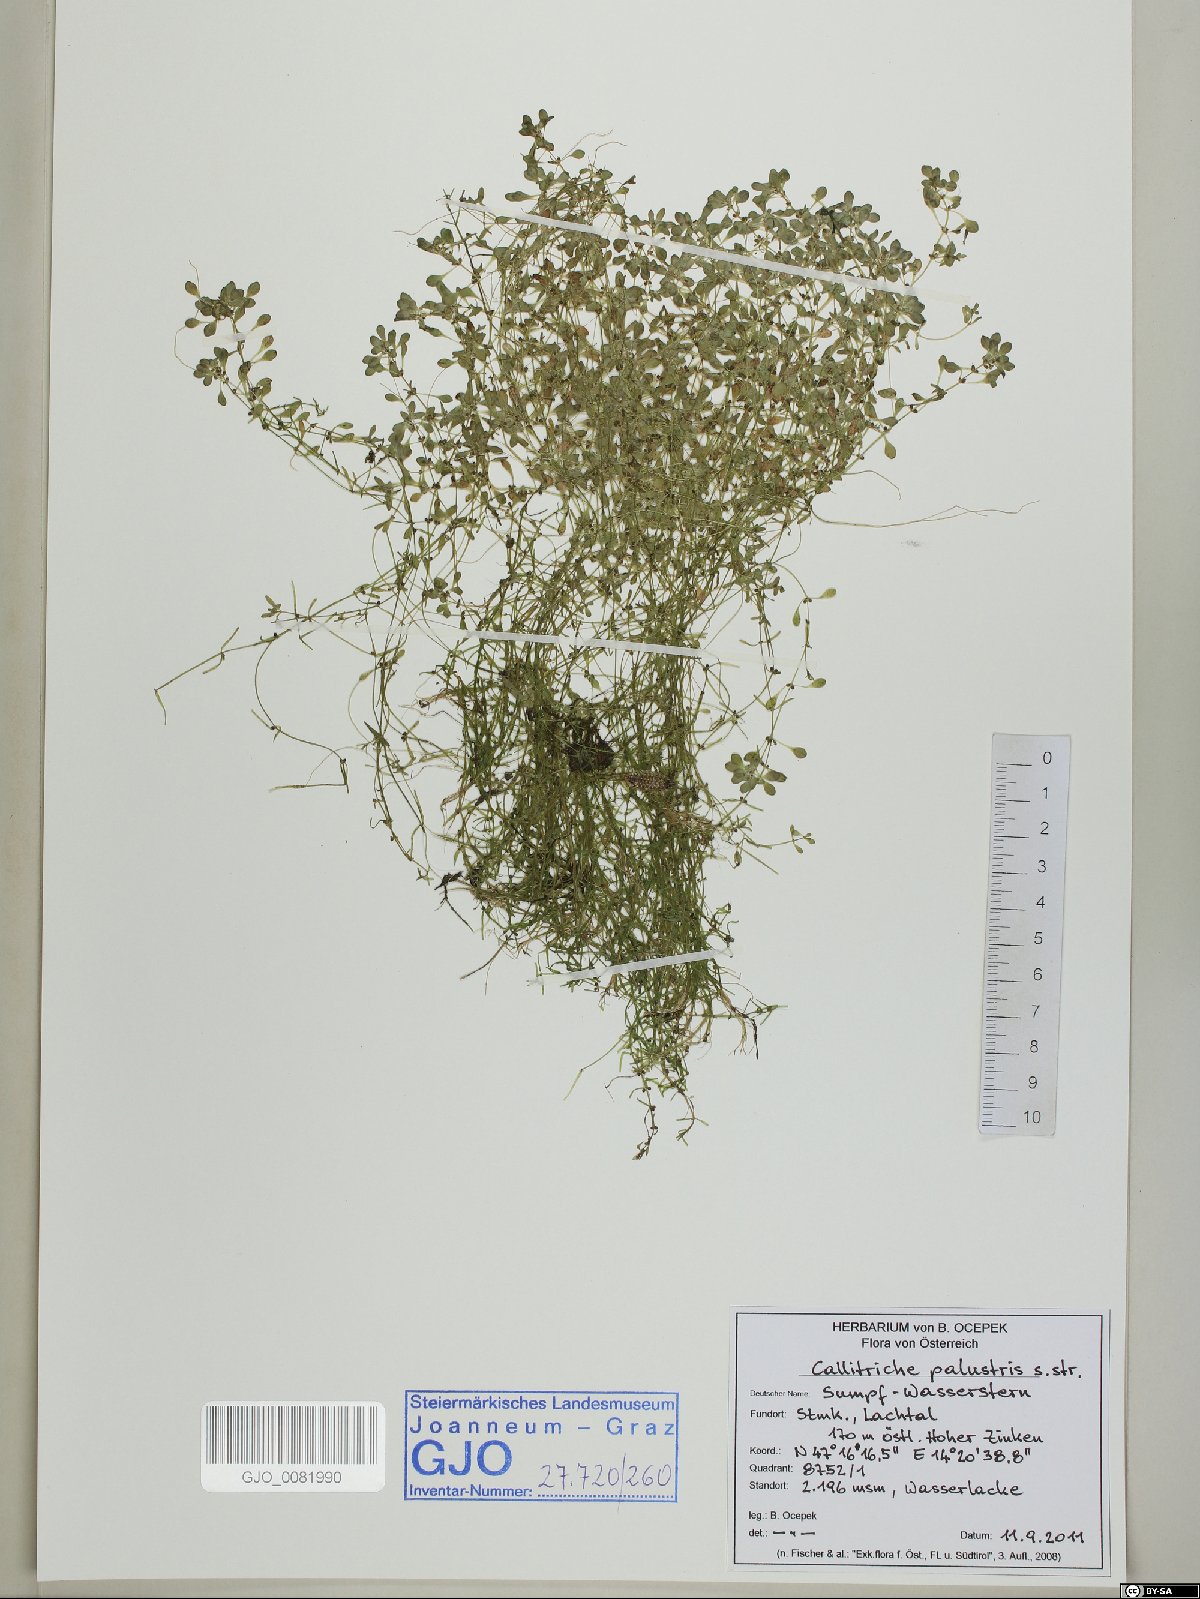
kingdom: Plantae
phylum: Tracheophyta
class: Magnoliopsida
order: Lamiales
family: Plantaginaceae
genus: Callitriche
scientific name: Callitriche palustris
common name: Spring water-starwort
